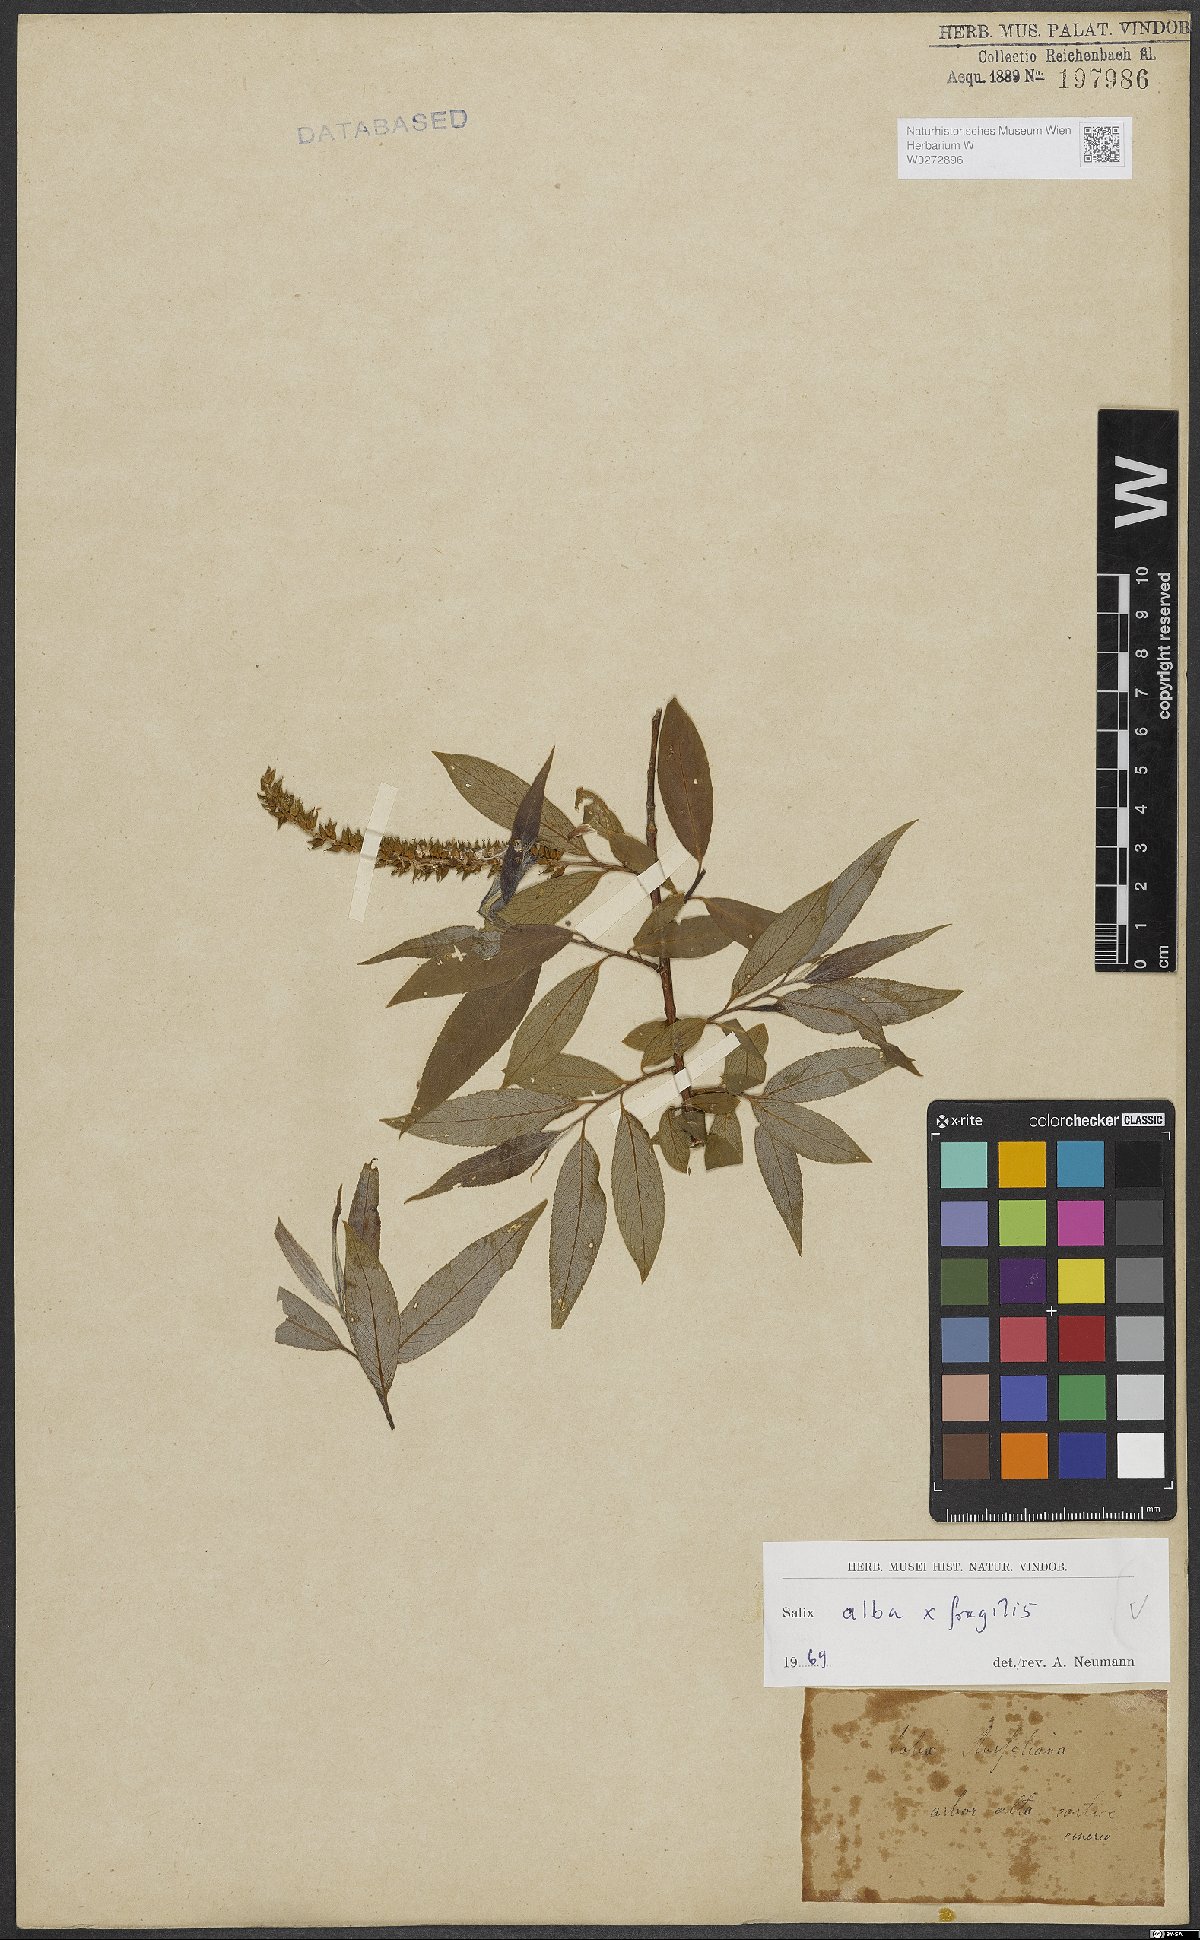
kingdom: Plantae
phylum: Tracheophyta
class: Magnoliopsida
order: Malpighiales
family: Salicaceae
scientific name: Salicaceae
